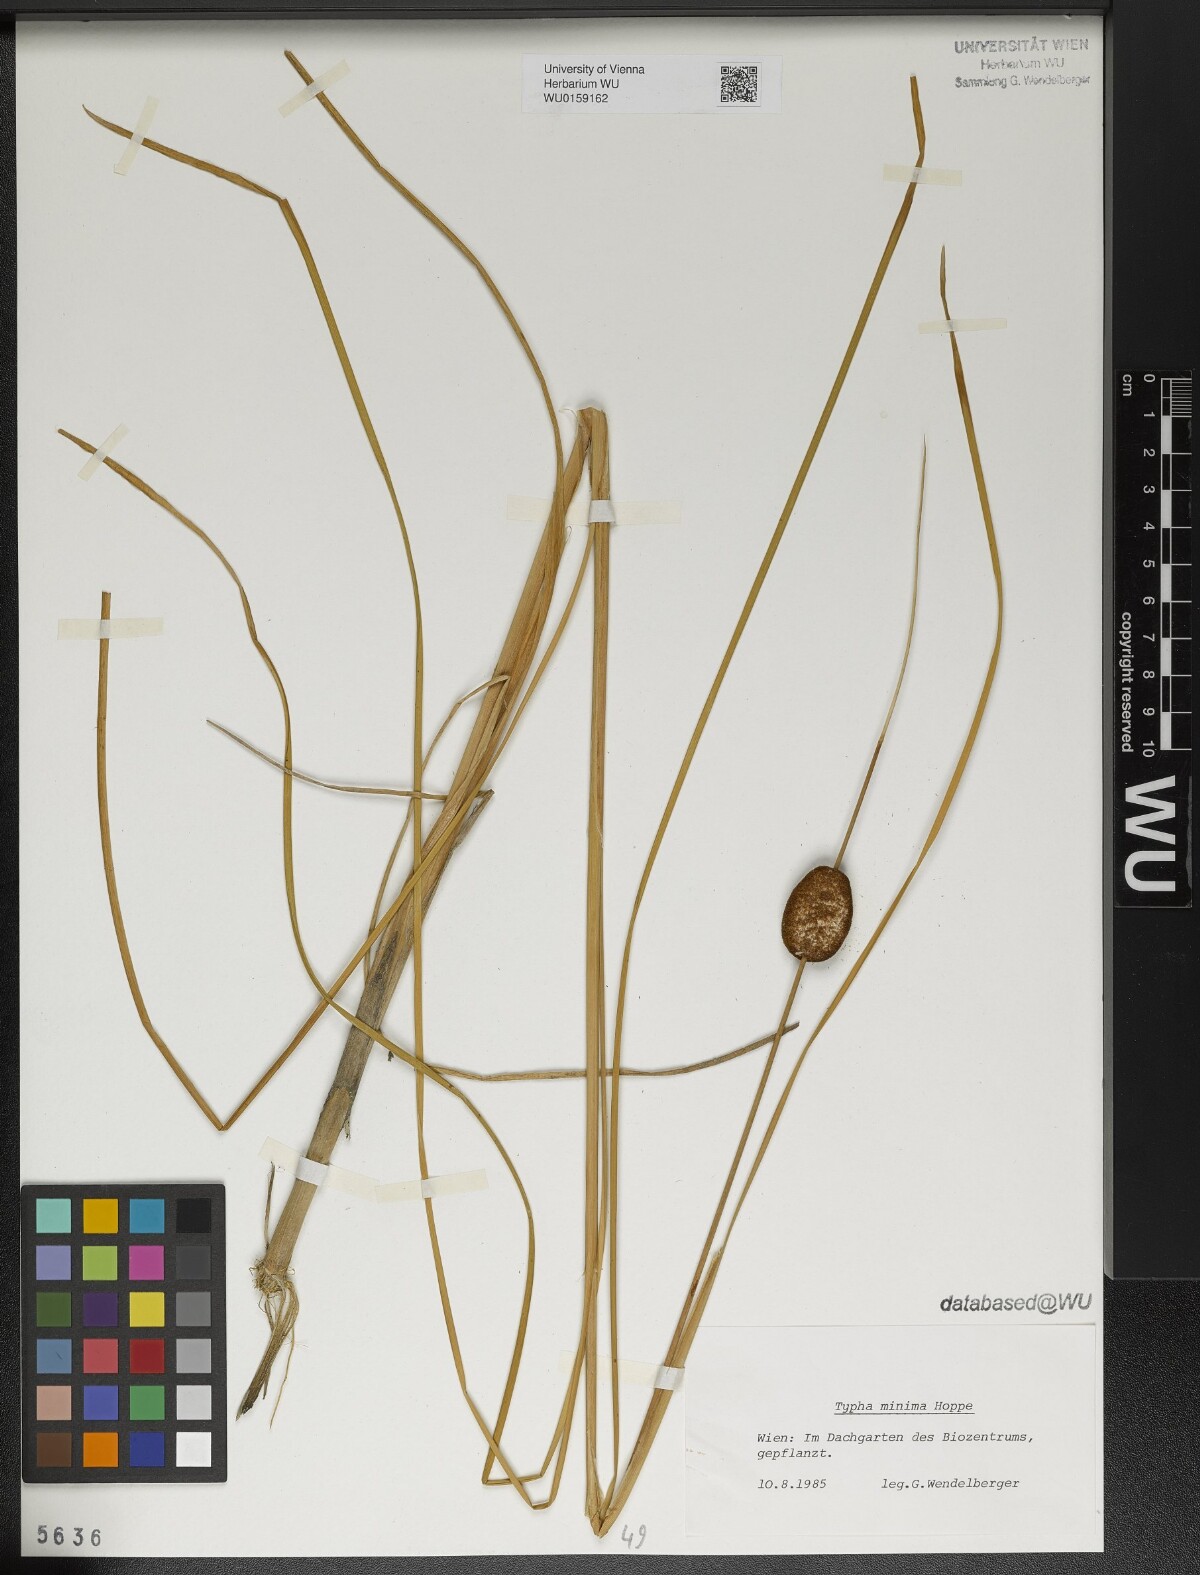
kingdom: Plantae
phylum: Tracheophyta
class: Liliopsida
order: Poales
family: Typhaceae
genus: Typha
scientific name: Typha minima
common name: Dwarf bulrush
